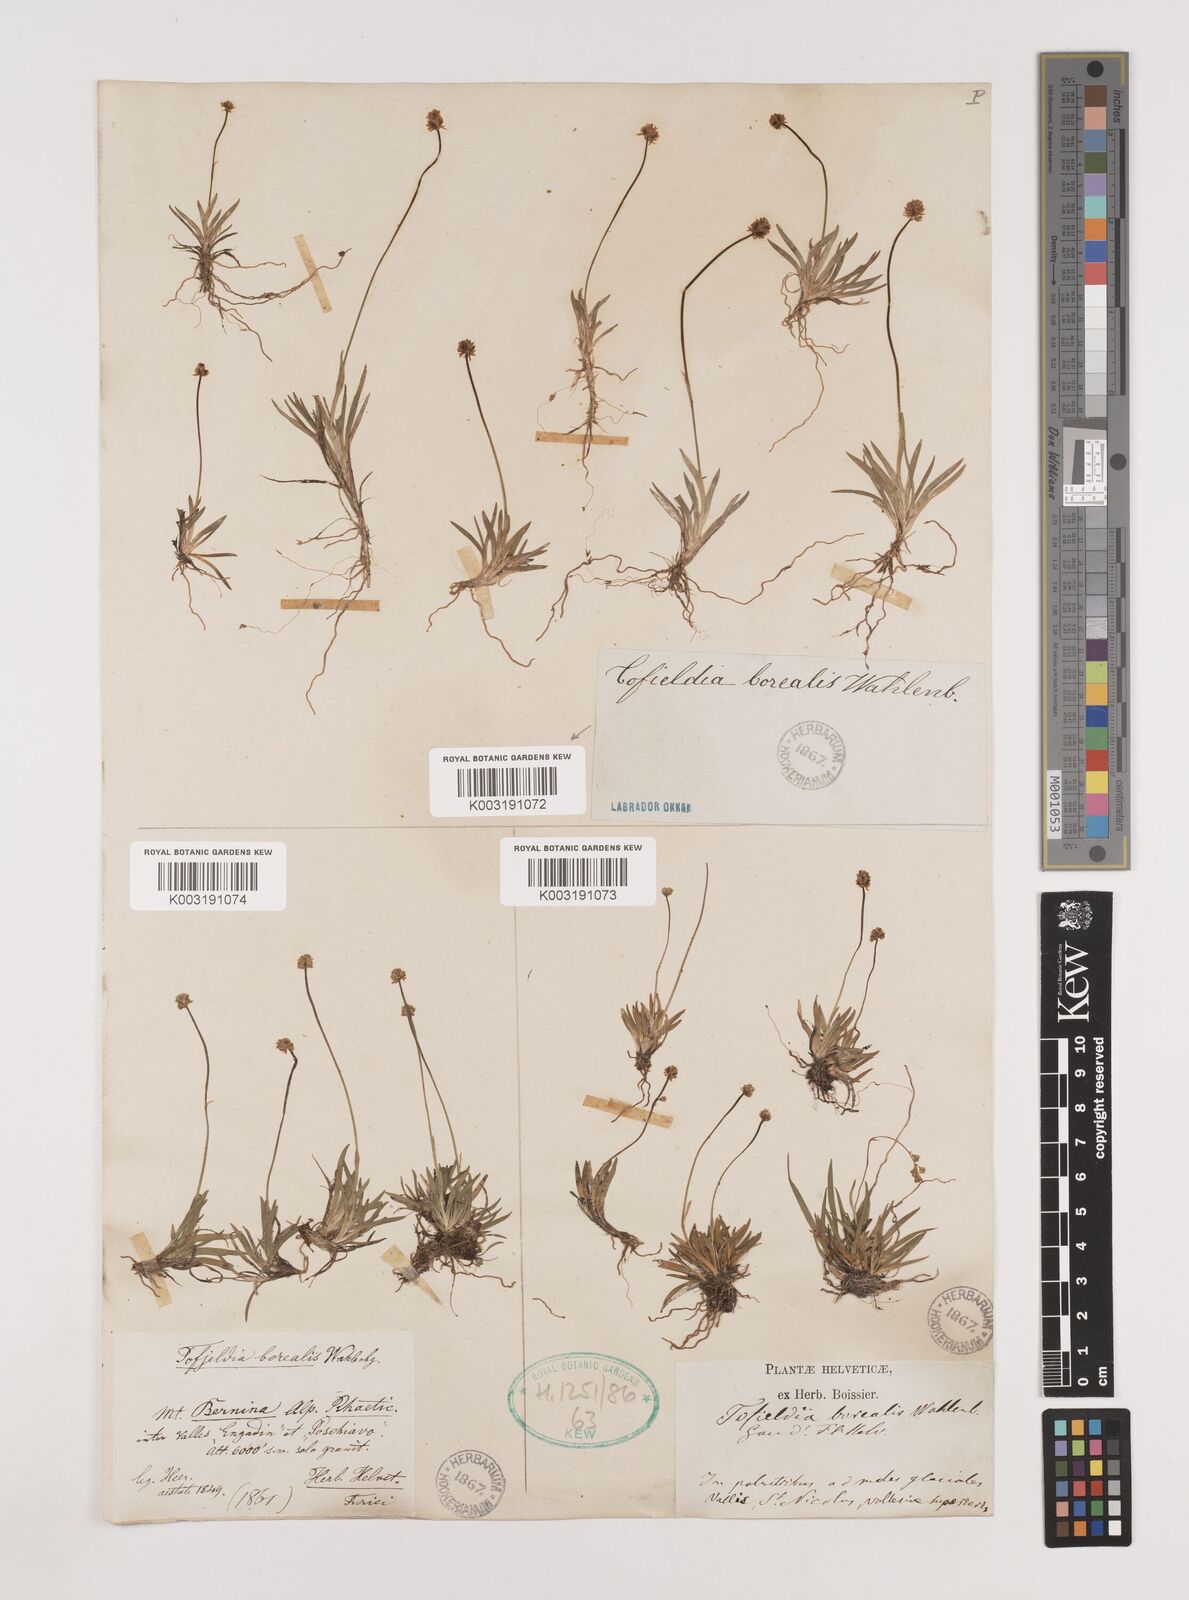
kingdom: Plantae
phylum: Tracheophyta
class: Liliopsida
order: Alismatales
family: Tofieldiaceae
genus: Tofieldia
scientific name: Tofieldia pusilla
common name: Scottish false asphodel
